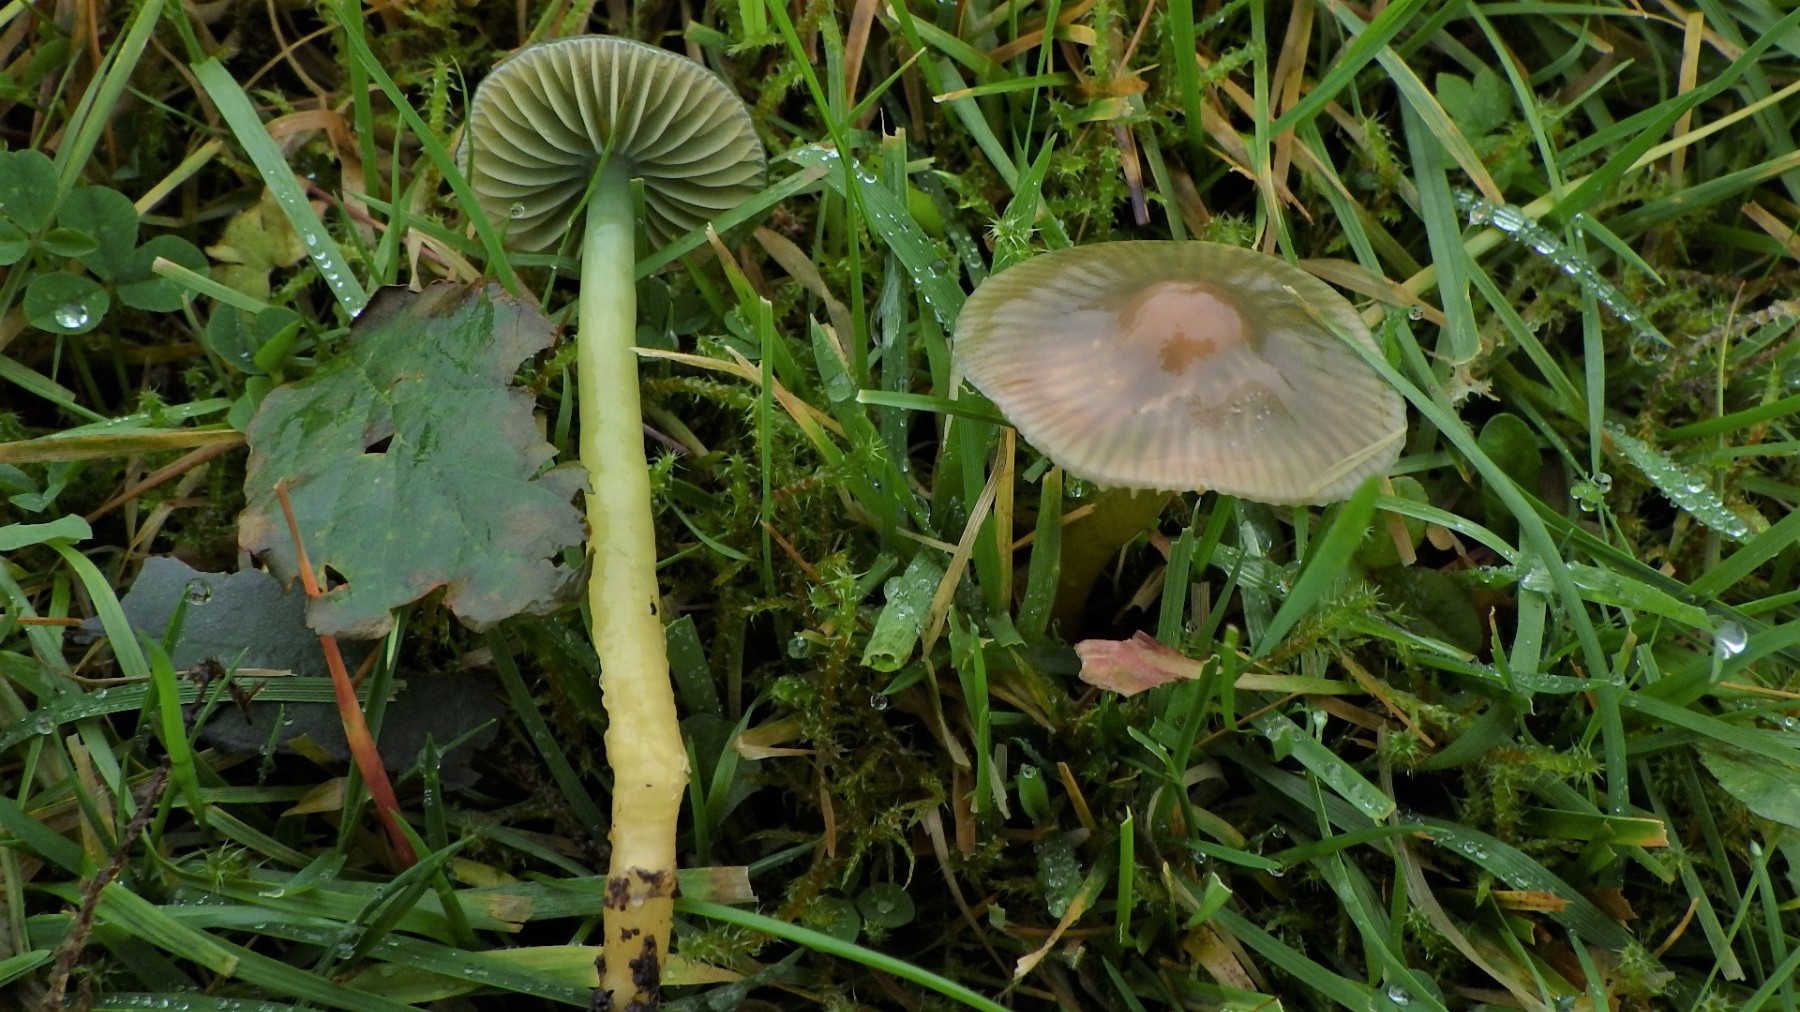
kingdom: Fungi
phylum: Basidiomycota
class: Agaricomycetes
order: Agaricales
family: Hygrophoraceae
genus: Gliophorus
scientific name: Gliophorus psittacinus
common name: papegøje-vokshat
